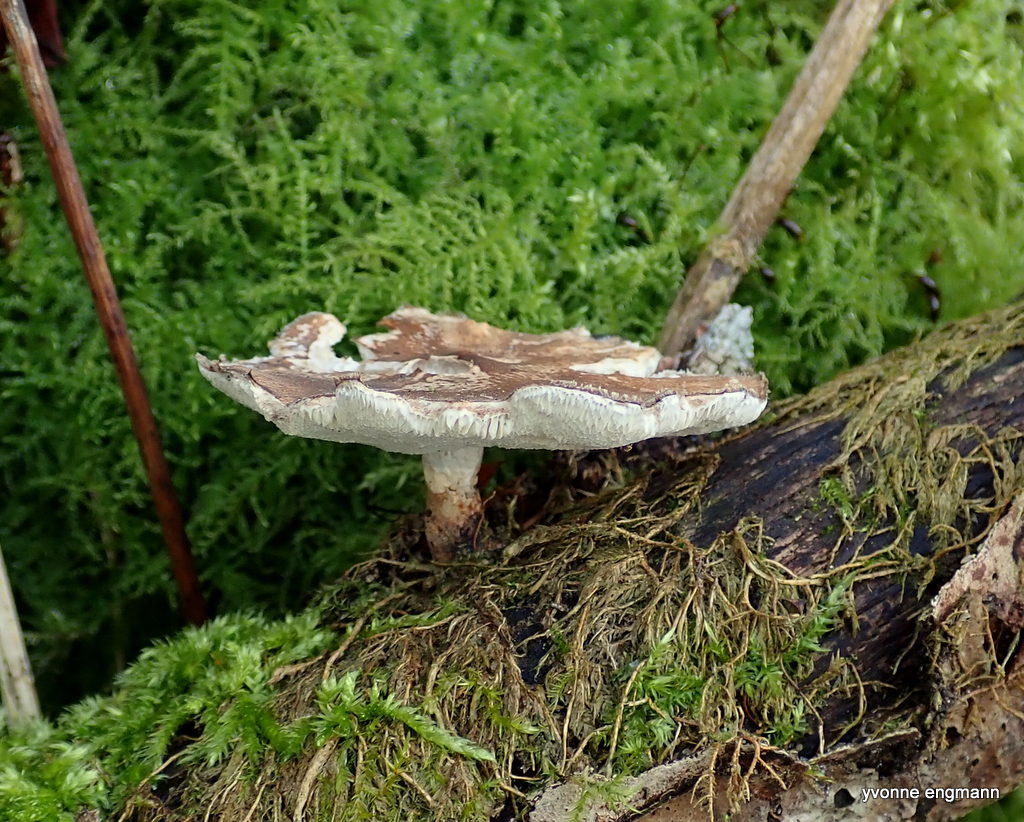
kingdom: Fungi
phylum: Basidiomycota
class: Agaricomycetes
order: Polyporales
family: Polyporaceae
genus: Lentinus
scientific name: Lentinus brumalis
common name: vinter-stilkporesvamp
